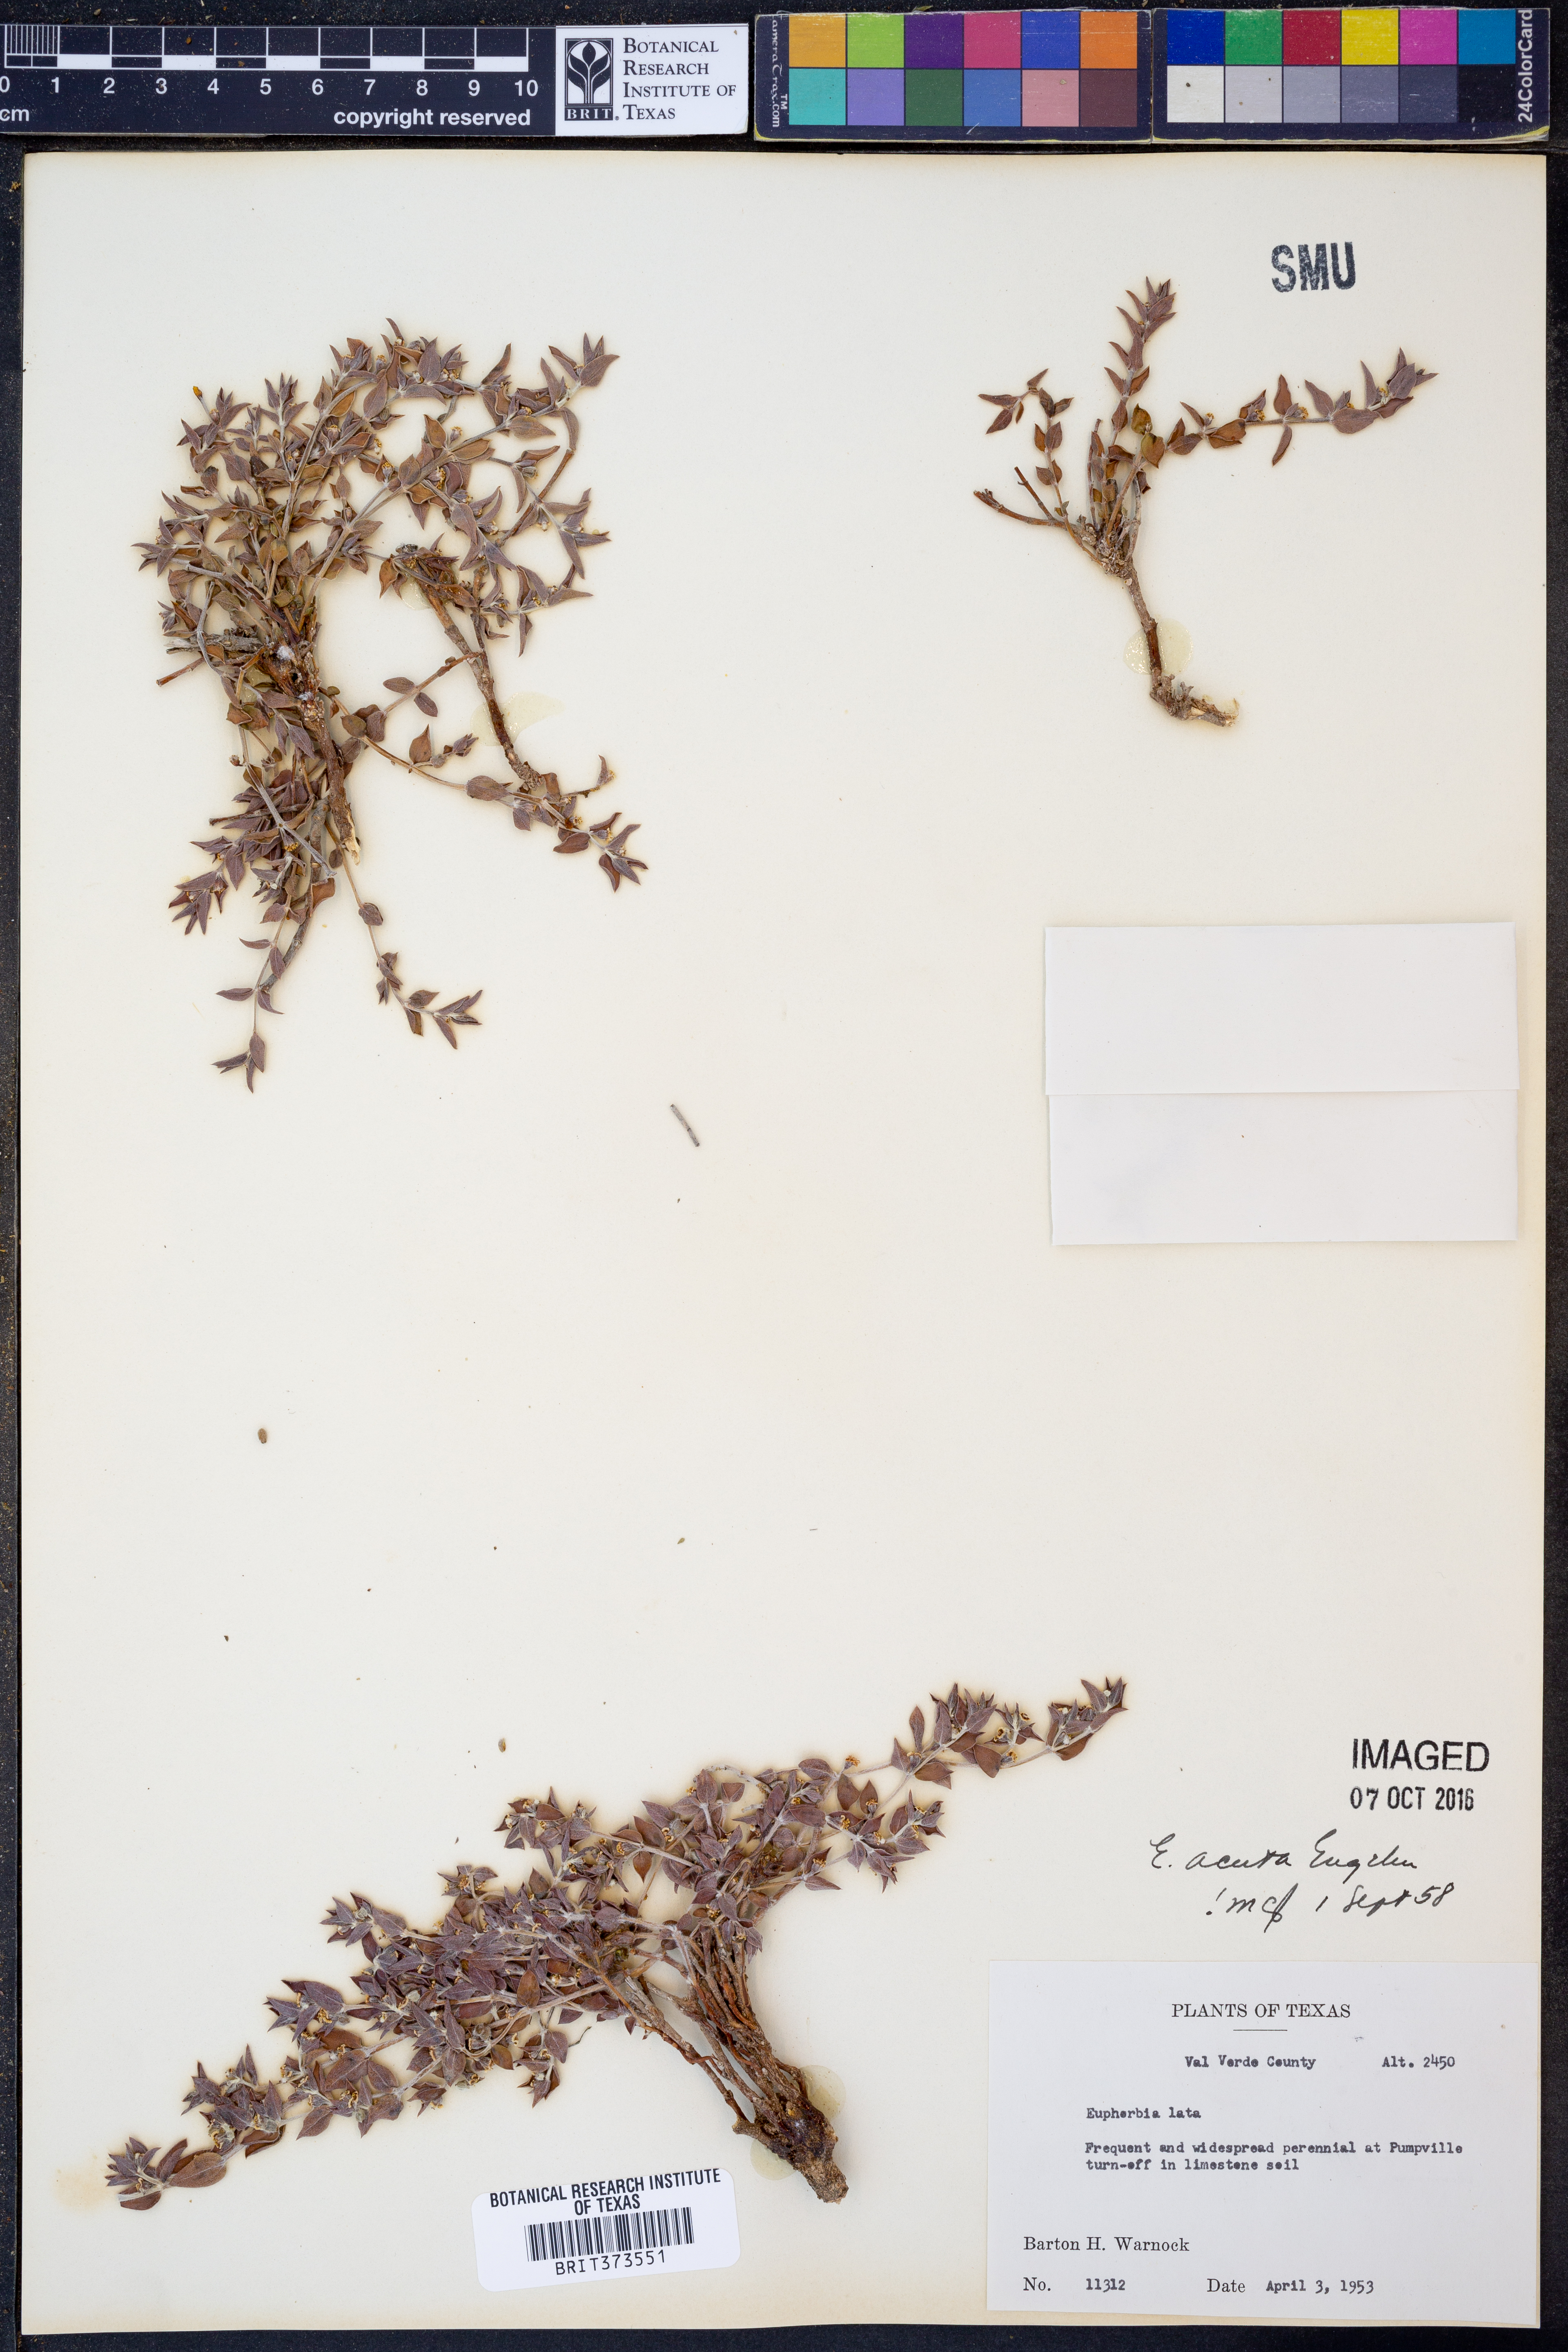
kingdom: Plantae
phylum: Tracheophyta
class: Magnoliopsida
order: Malpighiales
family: Euphorbiaceae
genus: Euphorbia
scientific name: Euphorbia acuta
